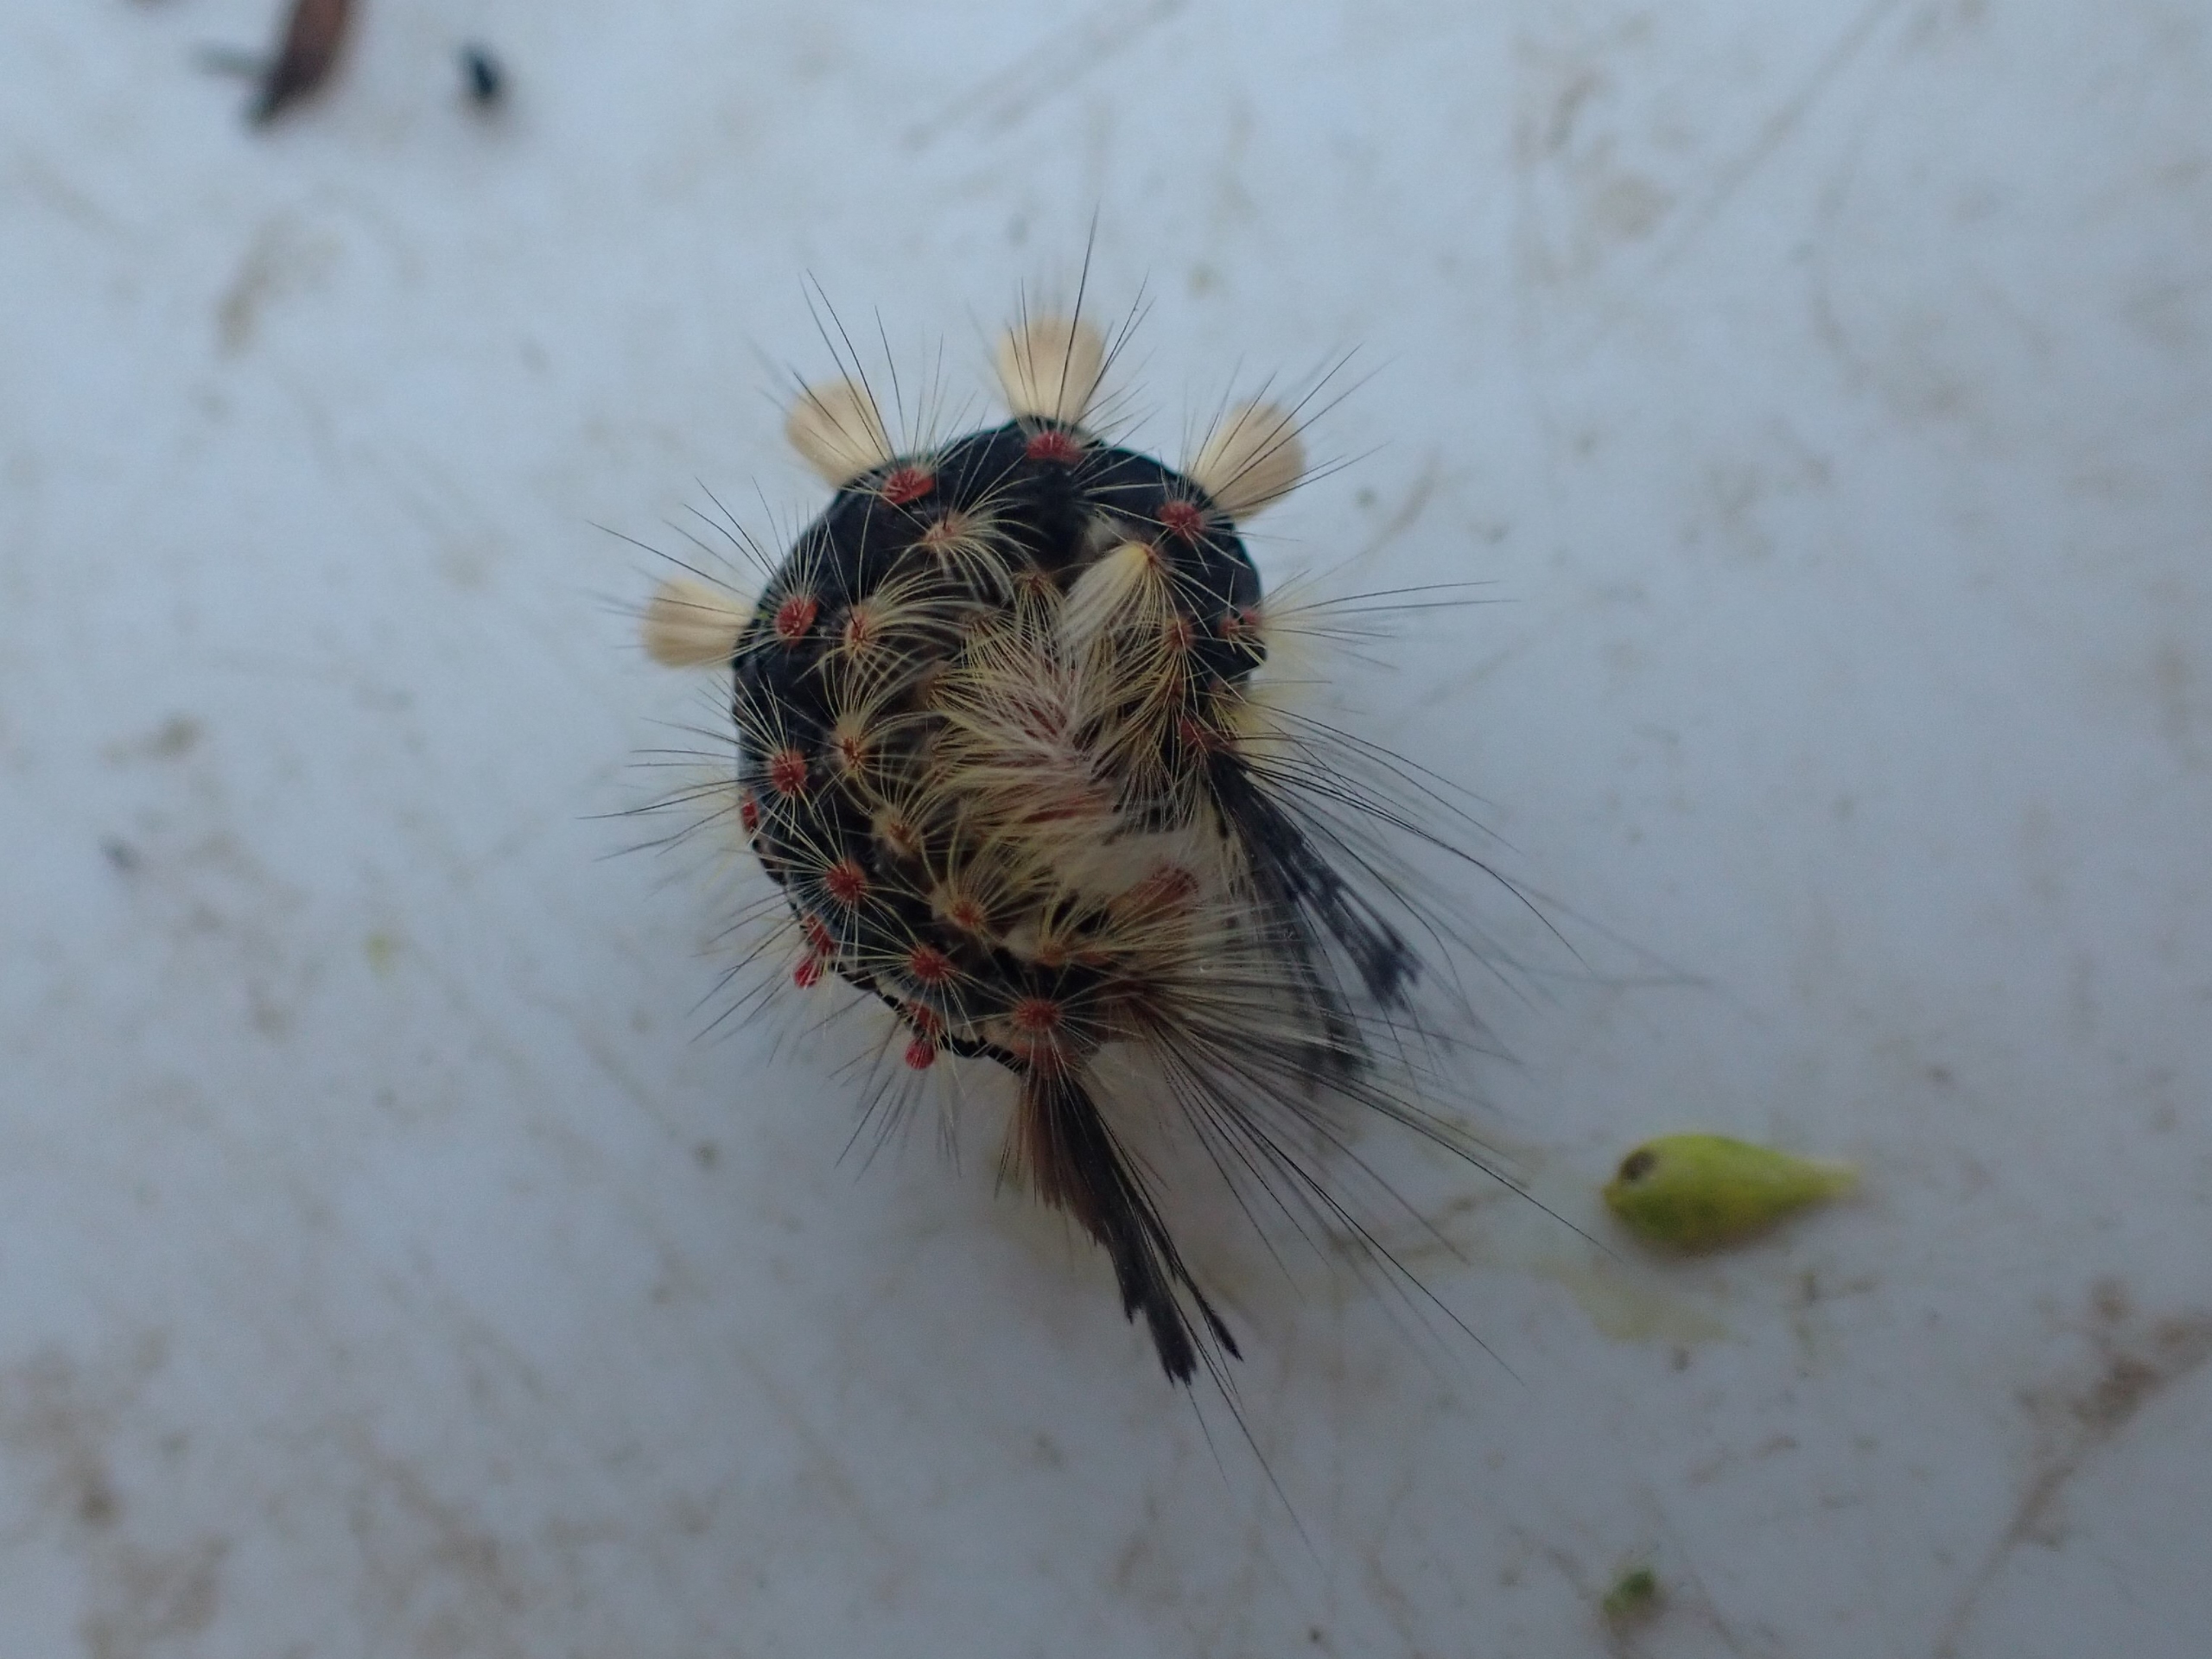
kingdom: Animalia
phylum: Arthropoda
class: Insecta
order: Lepidoptera
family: Erebidae
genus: Orgyia
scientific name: Orgyia antiqua
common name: Lille penselspinder
